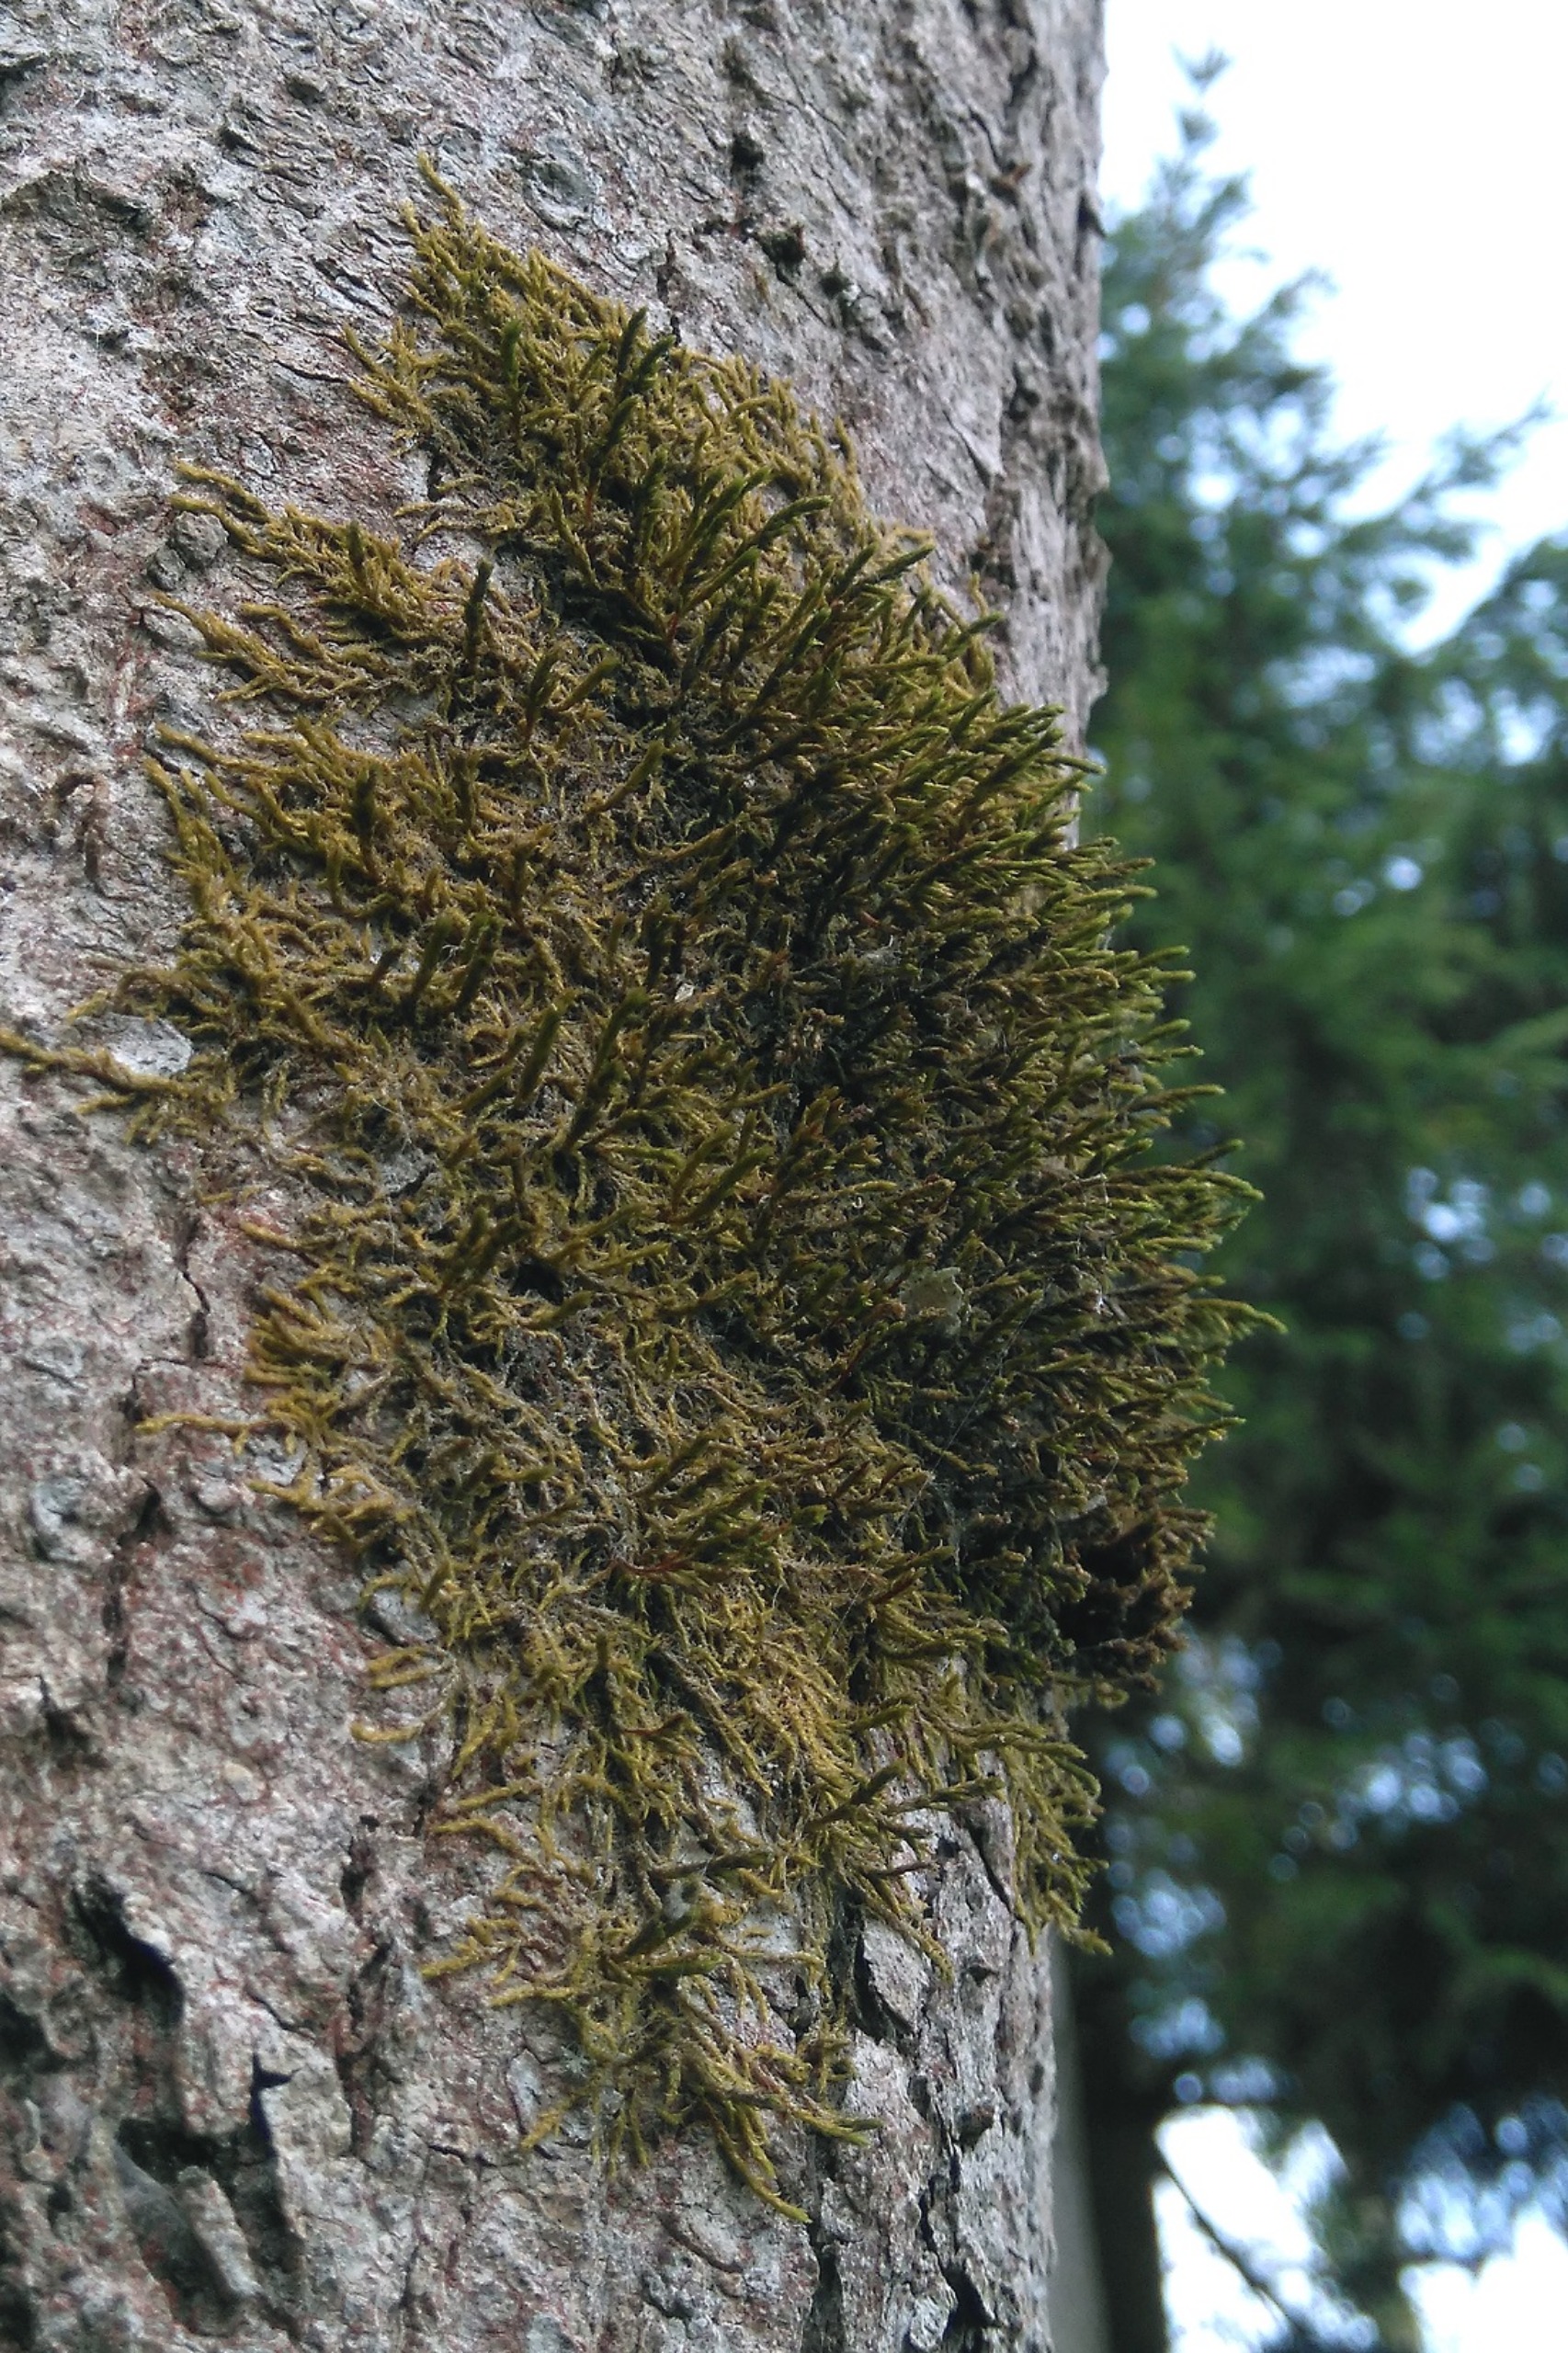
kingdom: Plantae
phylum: Bryophyta
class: Bryopsida
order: Hypnales
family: Cryphaeaceae
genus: Cryphaea
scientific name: Cryphaea heteromalla
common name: Bark-dækmos
